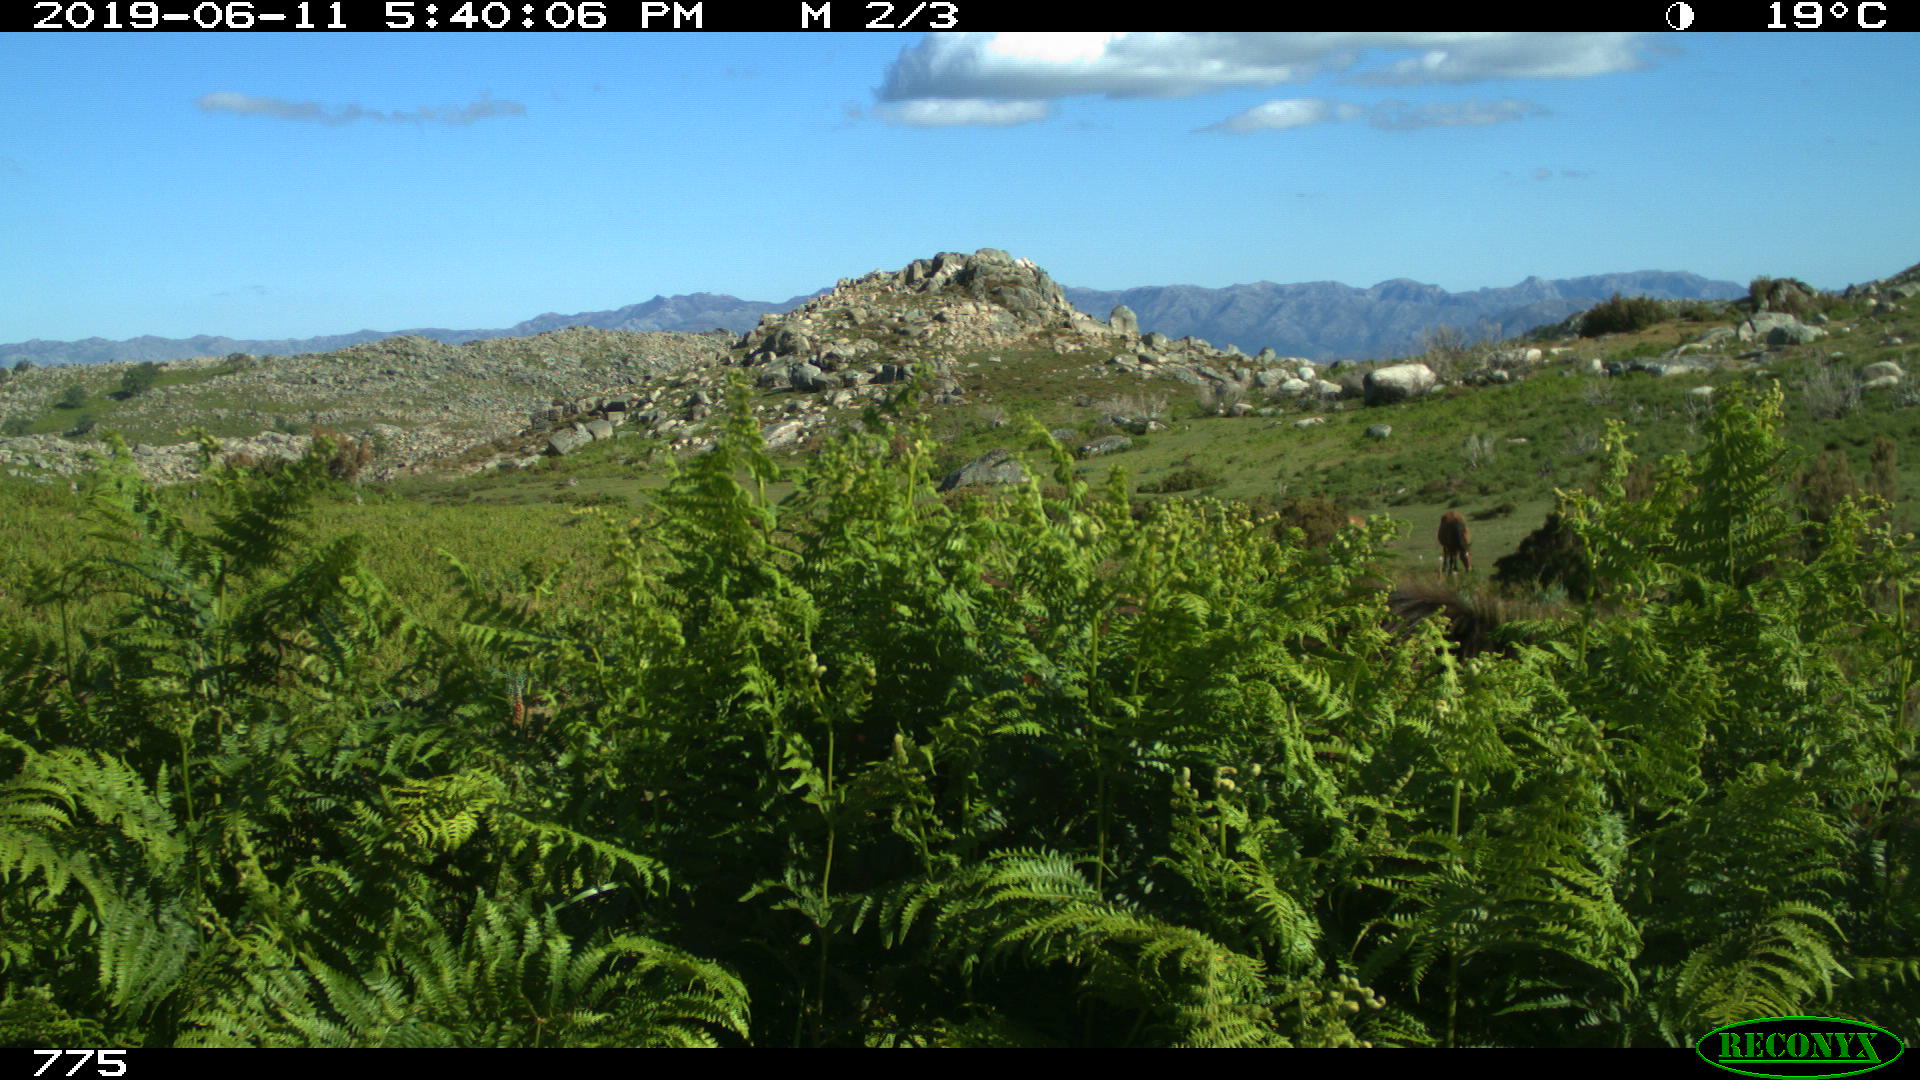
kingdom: Animalia
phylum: Chordata
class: Mammalia
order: Perissodactyla
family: Equidae
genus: Equus
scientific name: Equus caballus
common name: Horse
